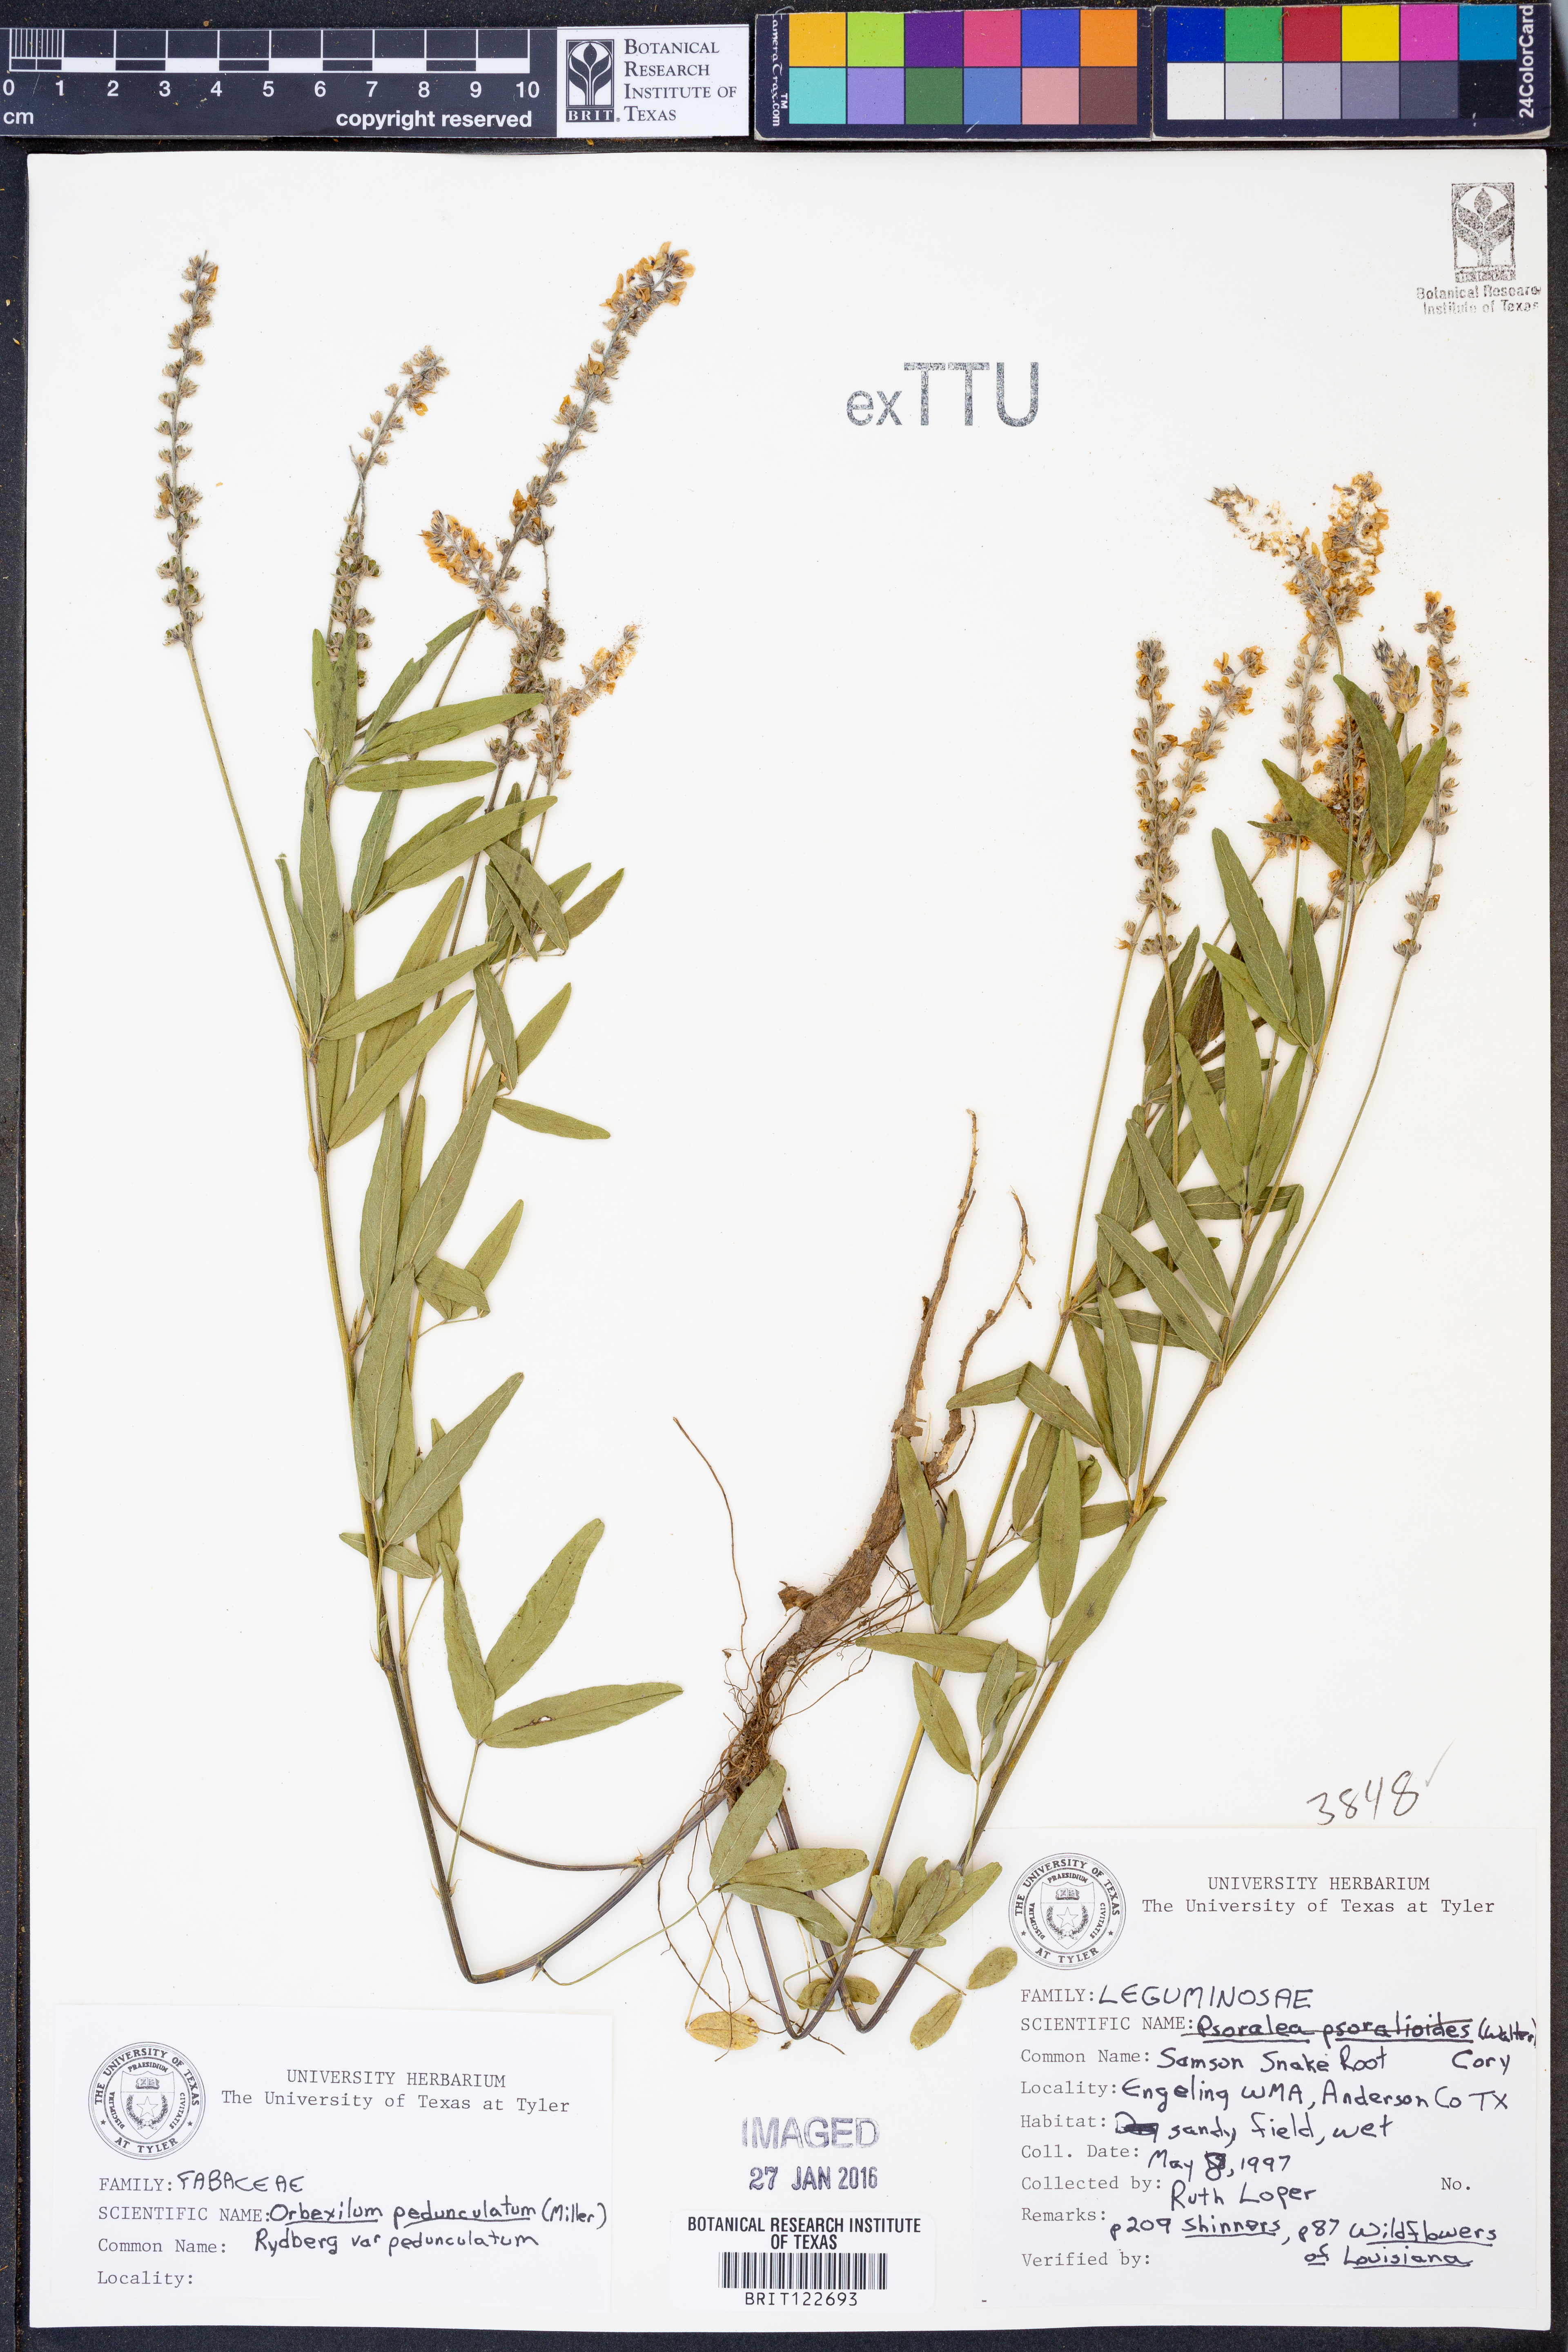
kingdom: Plantae
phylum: Tracheophyta
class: Magnoliopsida
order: Fabales
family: Fabaceae
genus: Orbexilum
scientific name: Orbexilum pedunculatum
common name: Sampson's snakeroot
